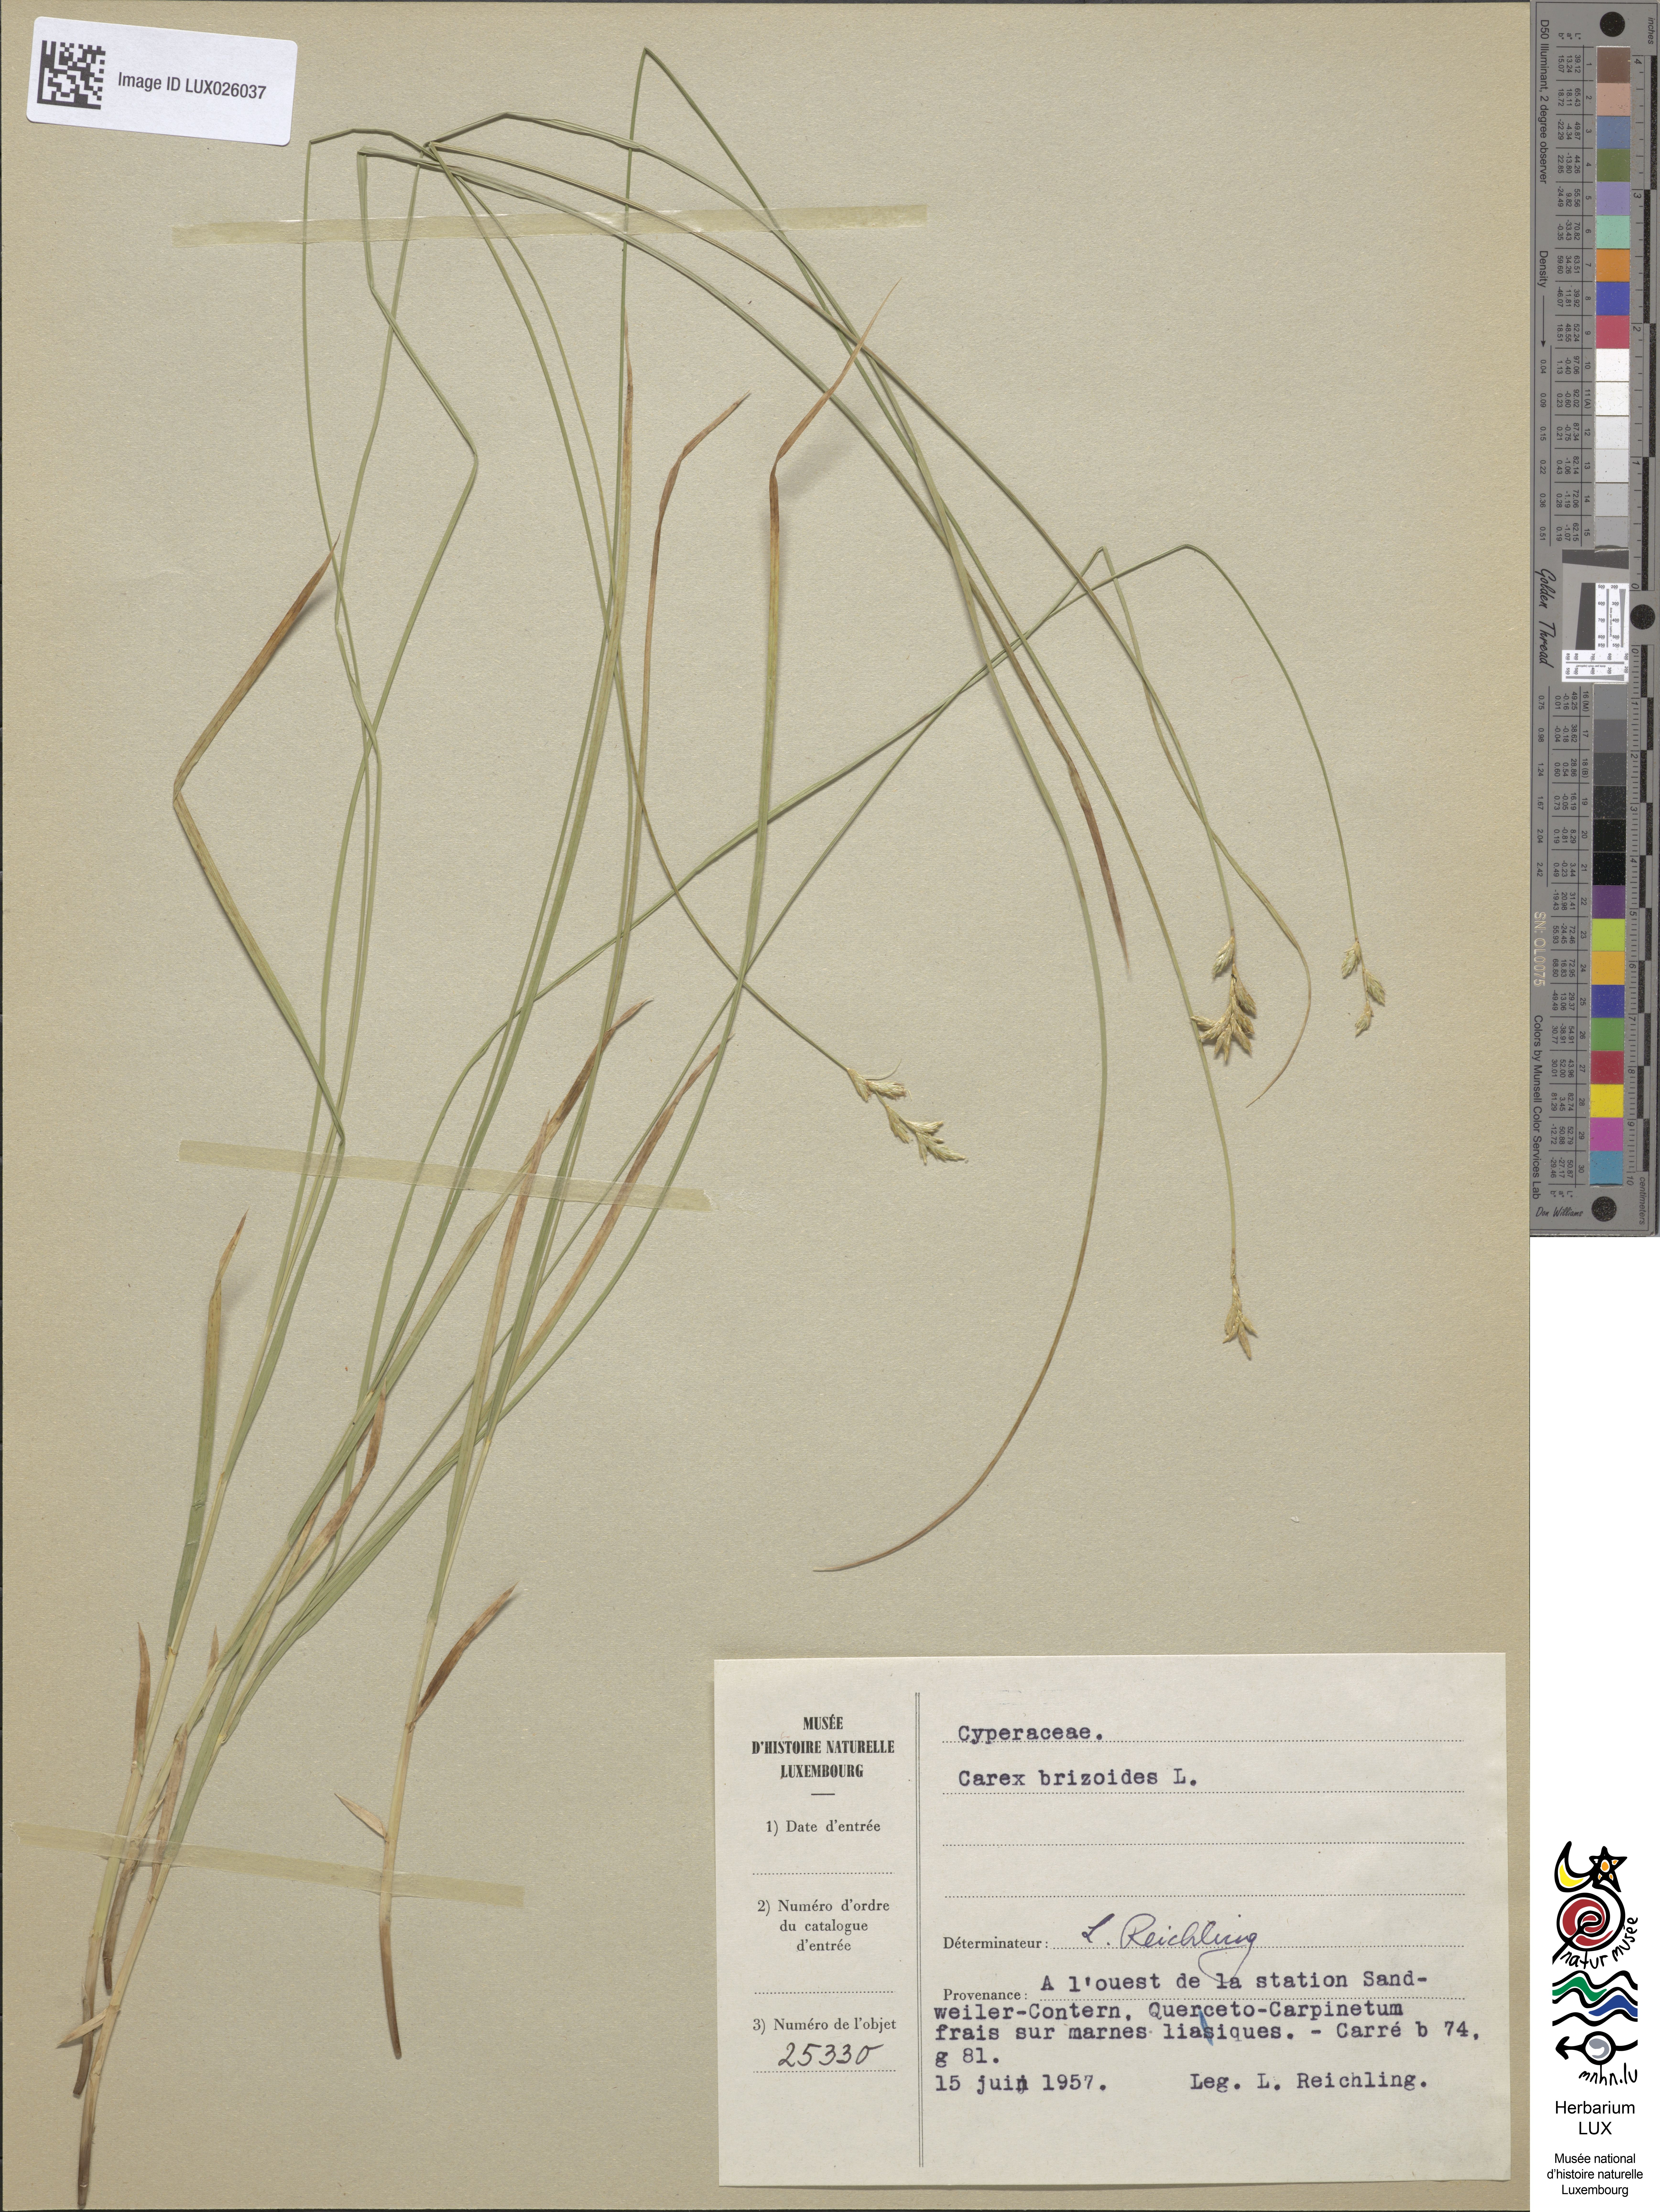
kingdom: Plantae
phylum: Tracheophyta
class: Liliopsida
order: Poales
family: Cyperaceae
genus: Carex
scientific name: Carex brizoides
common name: Quaking-grass sedge
